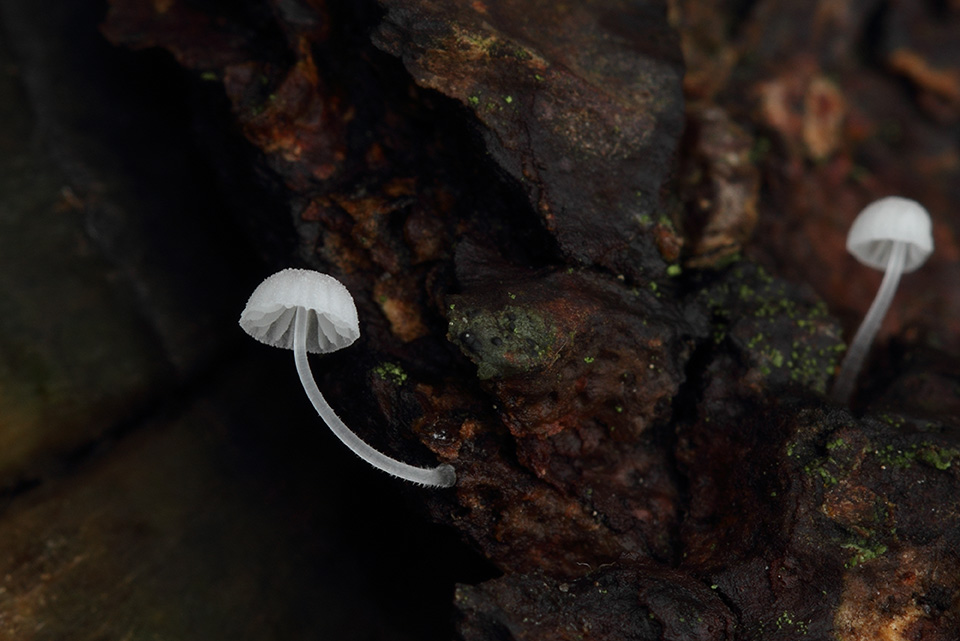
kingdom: Fungi
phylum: Basidiomycota
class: Agaricomycetes
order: Agaricales
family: Mycenaceae
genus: Mycena
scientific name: Mycena tenerrima
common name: pudret huesvamp
